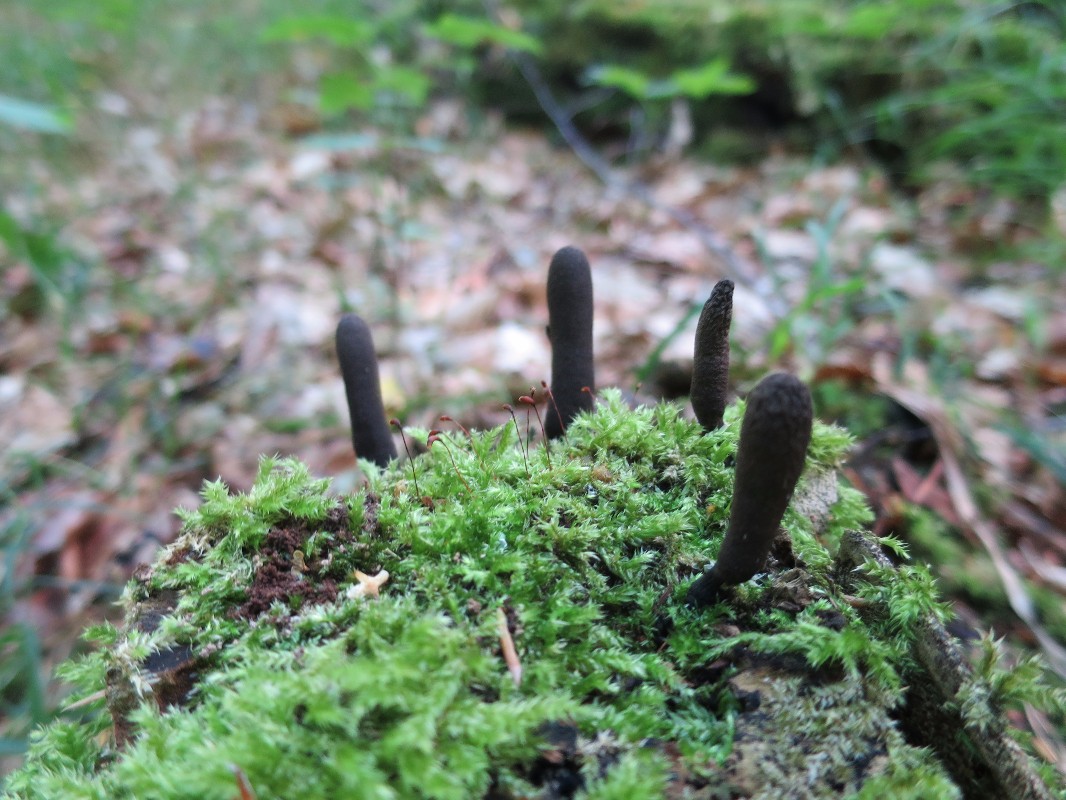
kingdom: Fungi
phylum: Ascomycota
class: Sordariomycetes
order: Xylariales
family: Xylariaceae
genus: Xylaria
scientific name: Xylaria longipes
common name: slank stødsvamp
